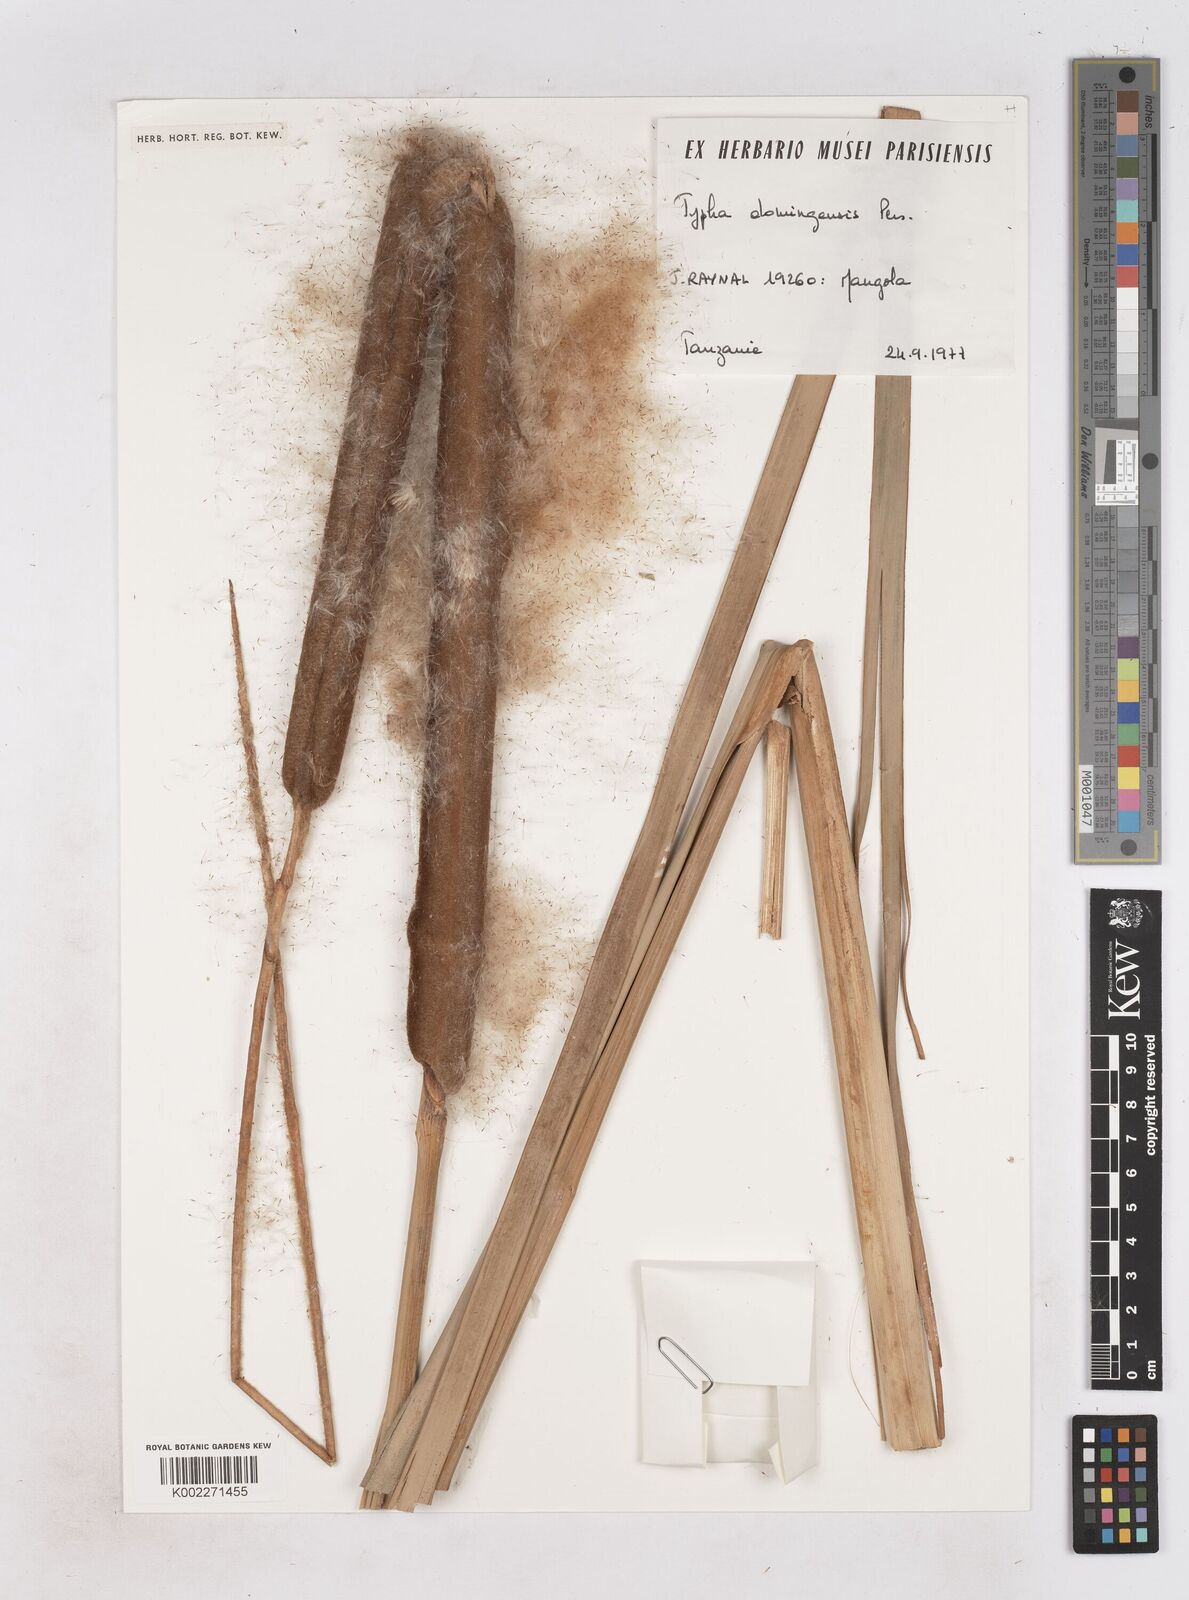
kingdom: Plantae
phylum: Tracheophyta
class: Liliopsida
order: Poales
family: Typhaceae
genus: Typha
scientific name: Typha domingensis
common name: Southern cattail
